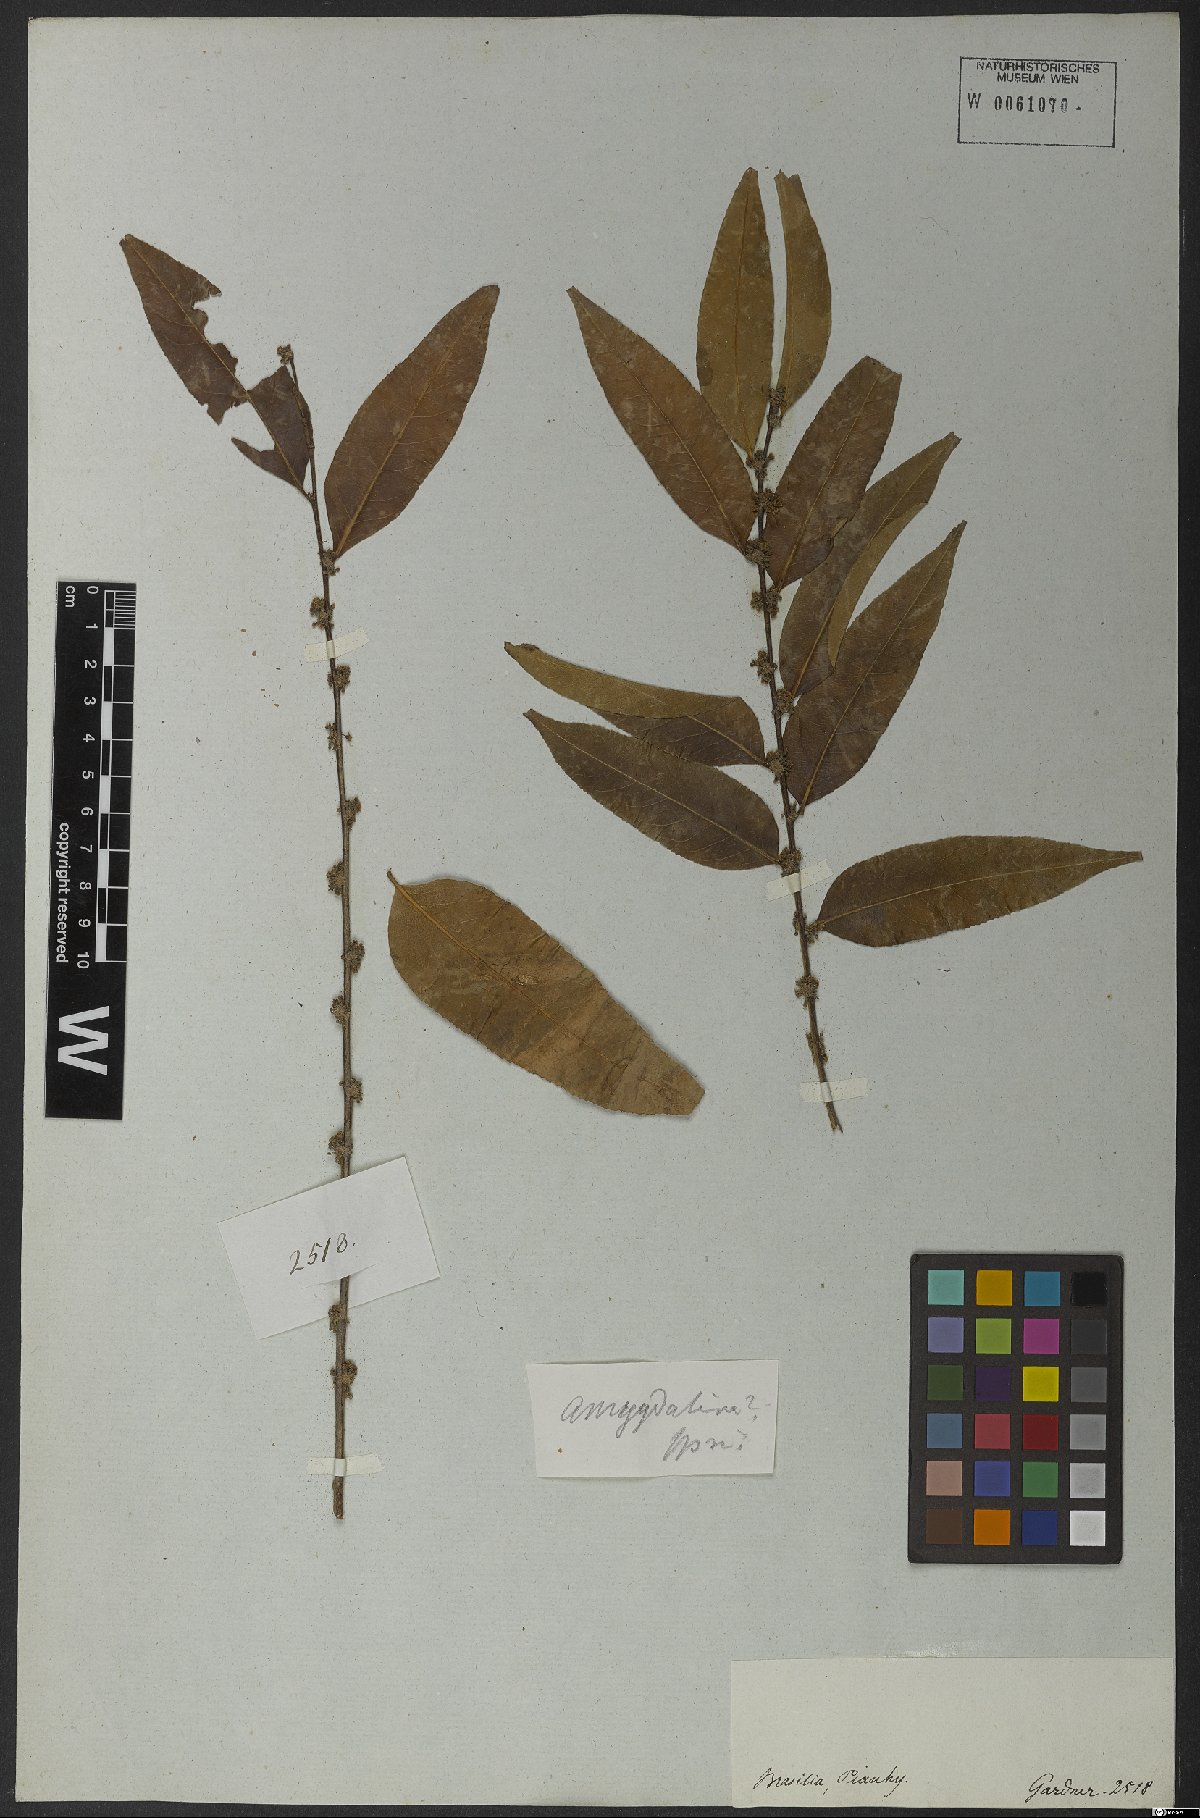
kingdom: Plantae
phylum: Tracheophyta
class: Magnoliopsida
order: Malpighiales
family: Salicaceae
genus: Casearia
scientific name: Casearia sylvestris
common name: Wild sage
